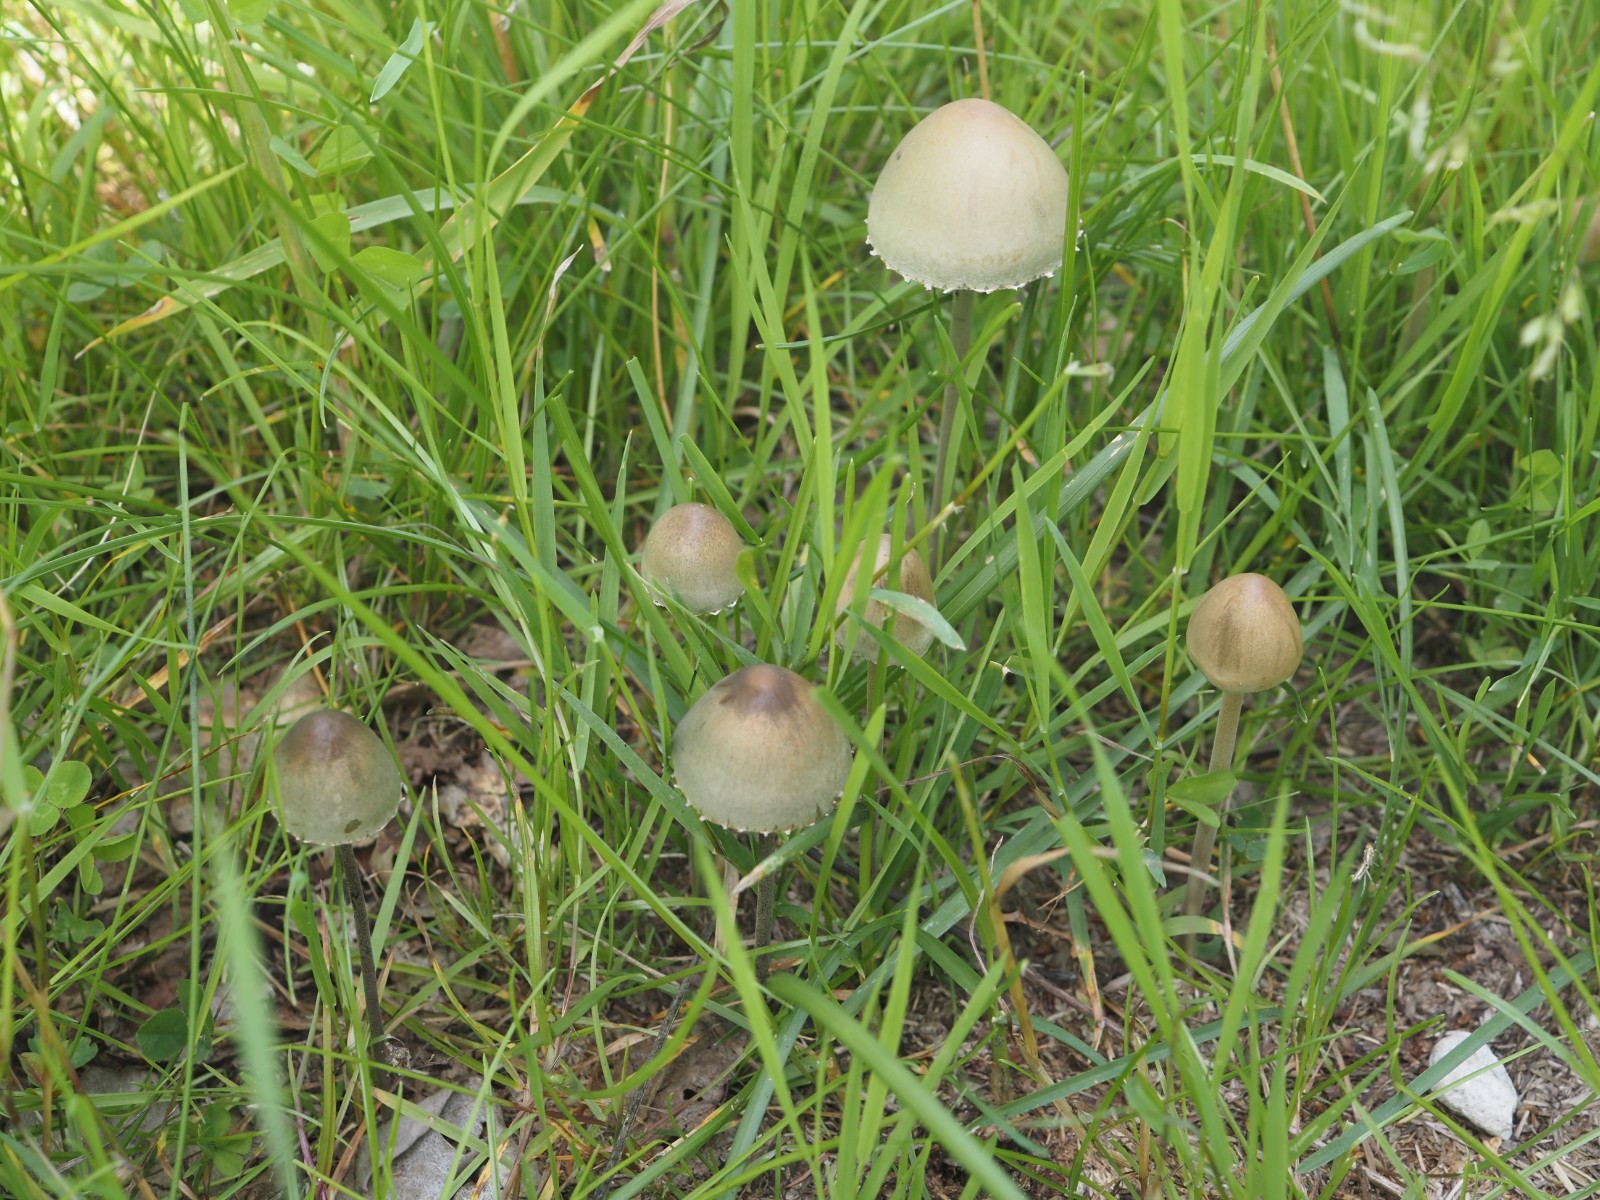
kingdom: Fungi
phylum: Basidiomycota
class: Agaricomycetes
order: Agaricales
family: Bolbitiaceae
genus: Panaeolus
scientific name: Panaeolus papilionaceus
